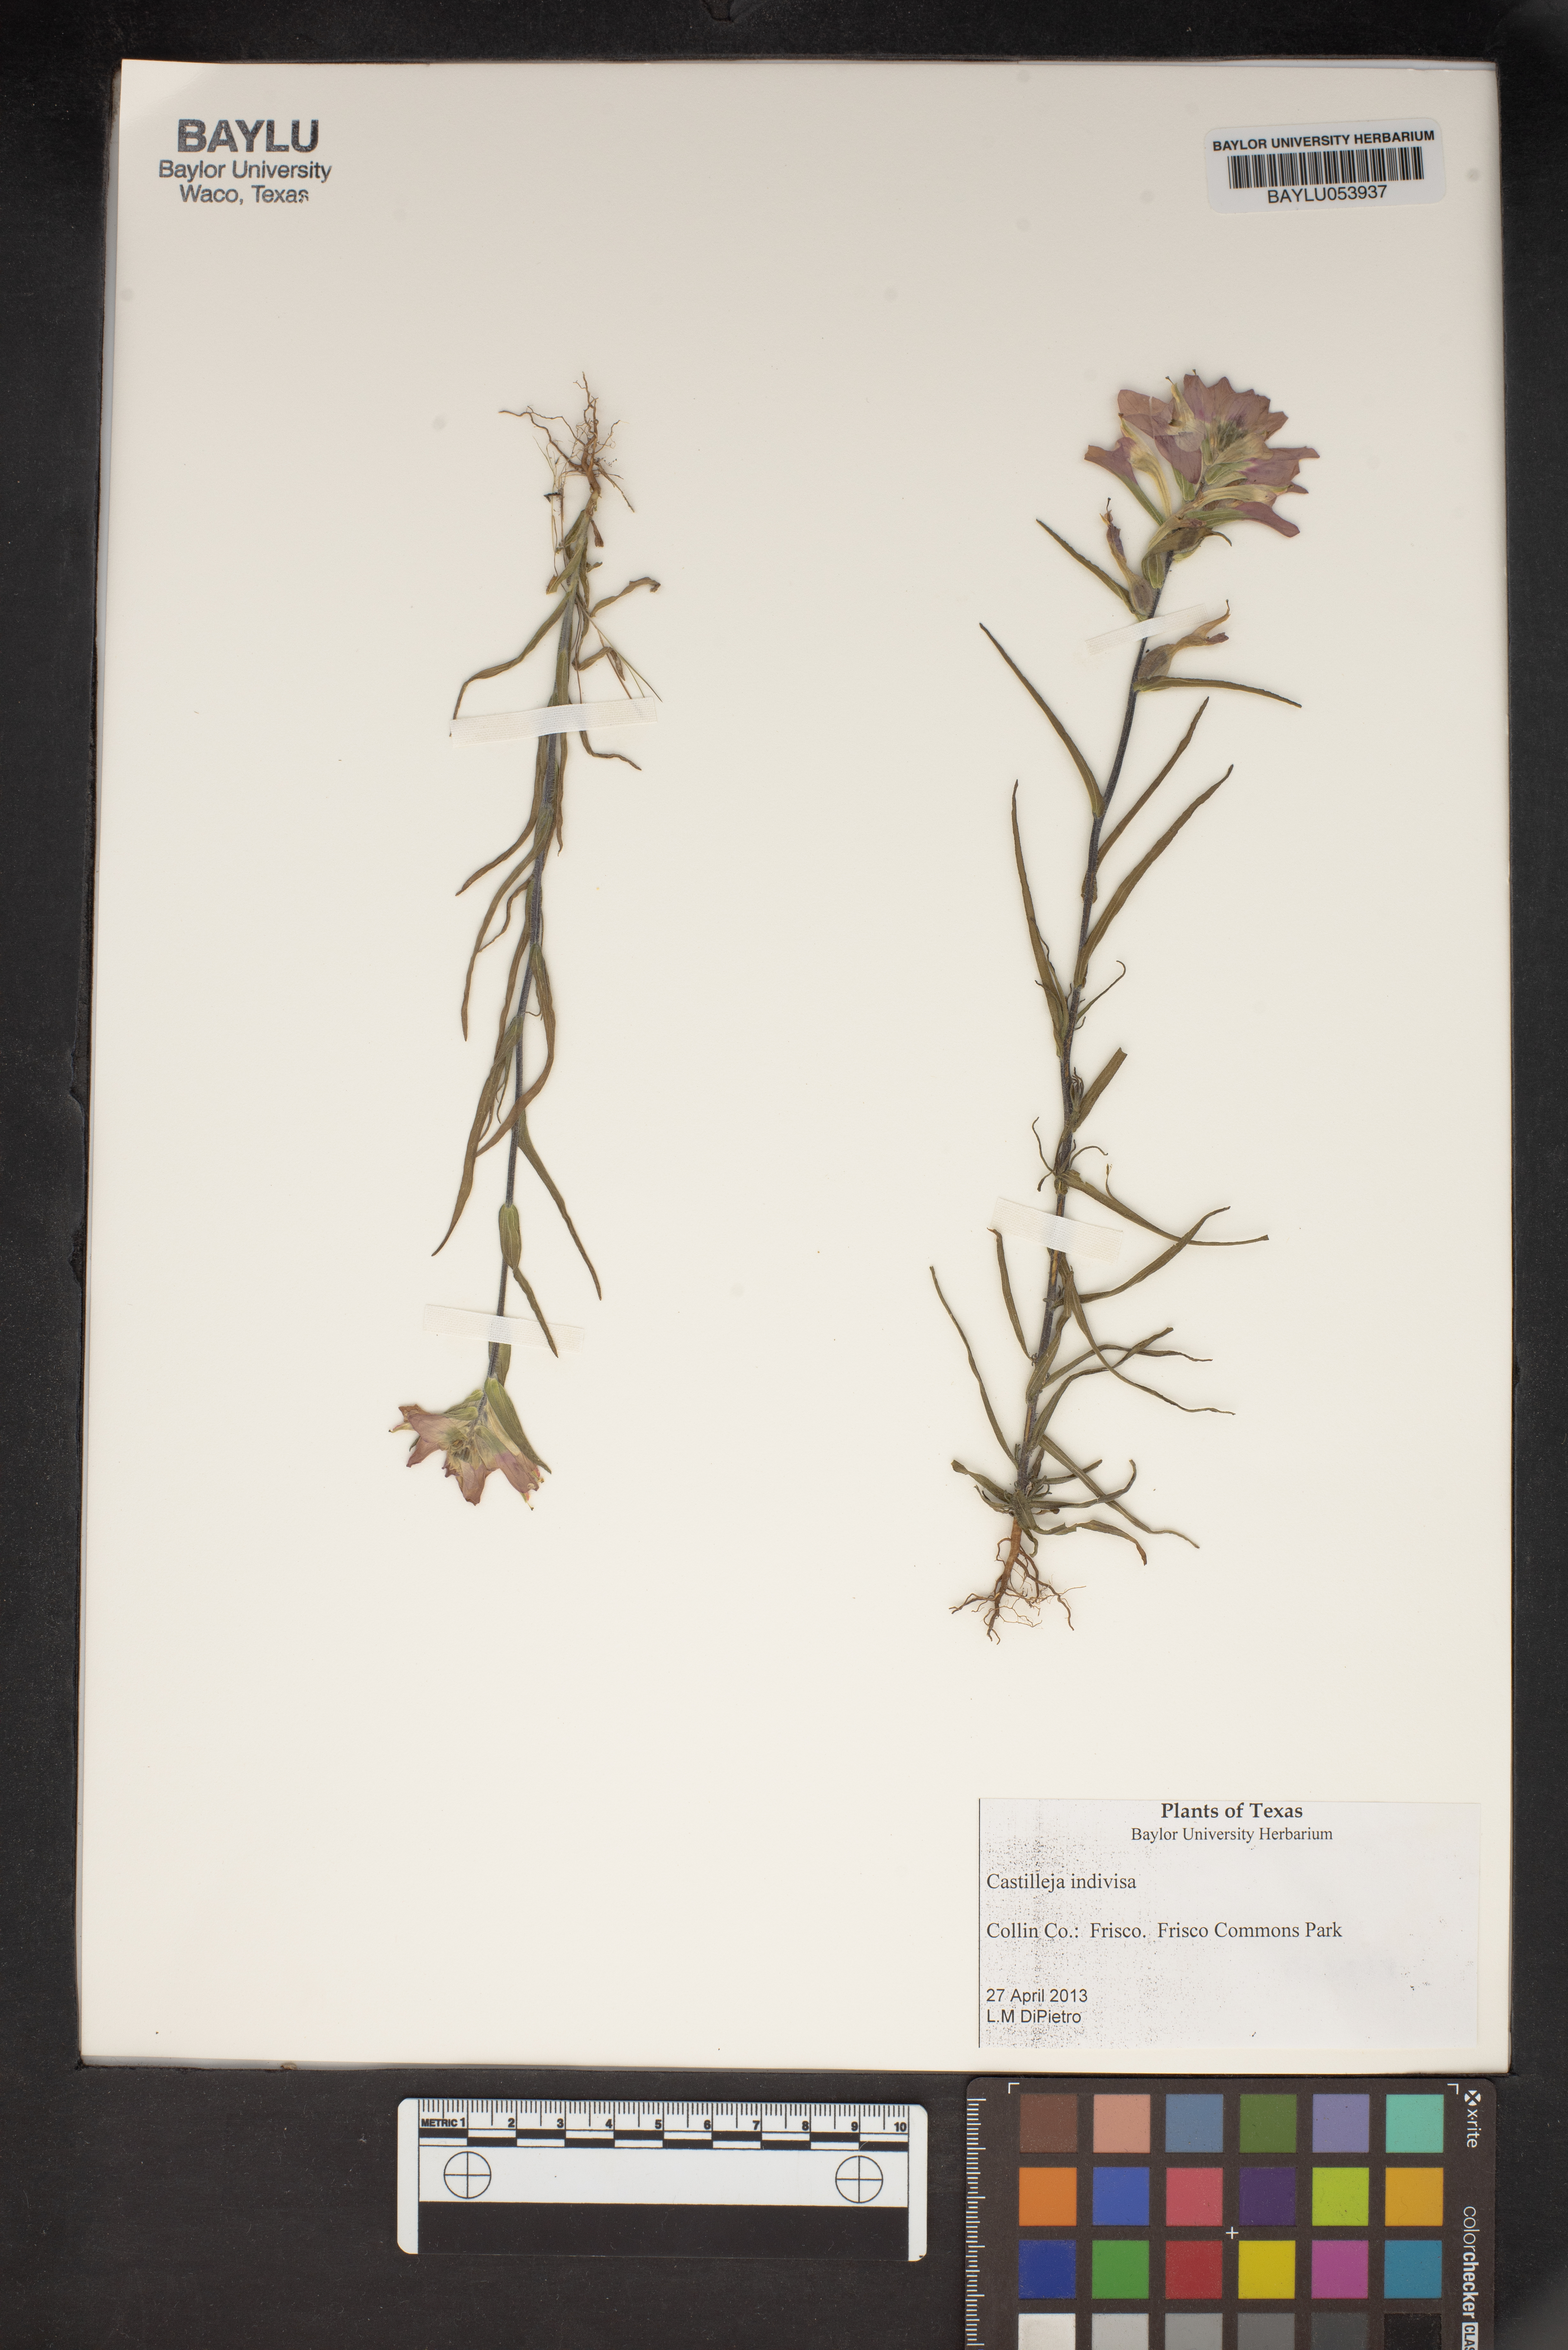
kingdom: Plantae
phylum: Tracheophyta
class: Magnoliopsida
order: Lamiales
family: Orobanchaceae
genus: Castilleja
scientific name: Castilleja indivisa
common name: Texas paintbrush
